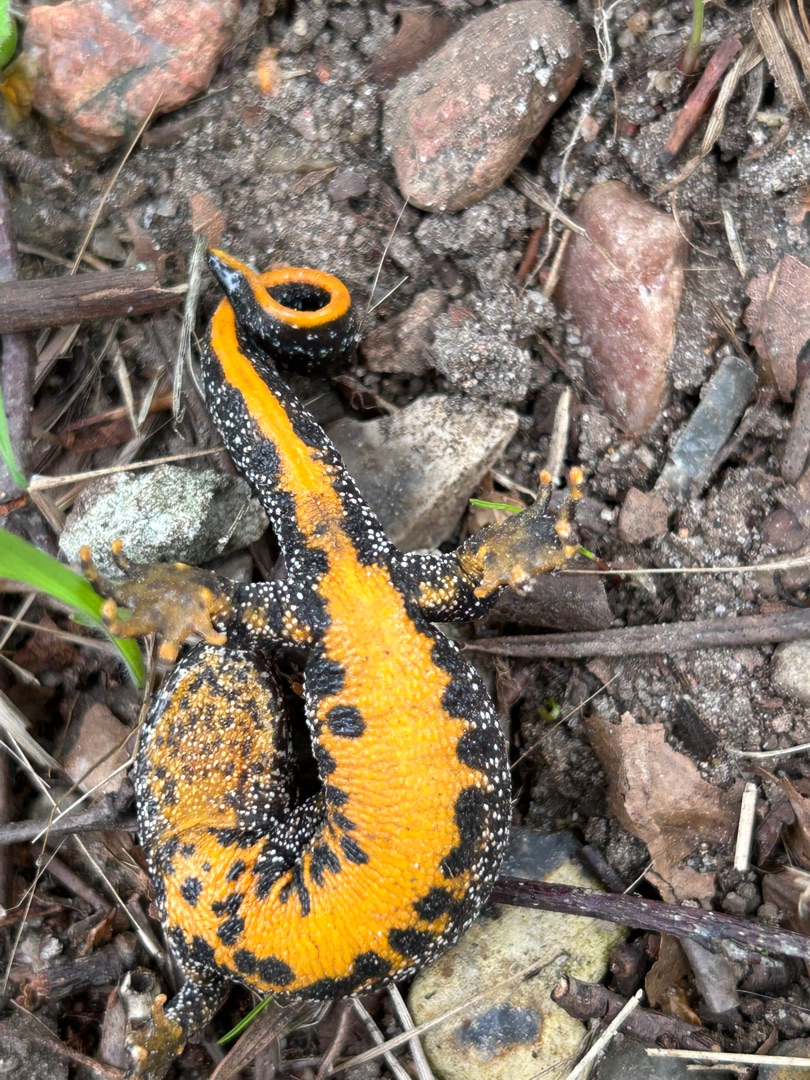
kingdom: Animalia
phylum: Chordata
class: Amphibia
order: Caudata
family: Salamandridae
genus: Triturus
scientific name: Triturus cristatus
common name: Stor vandsalamander
